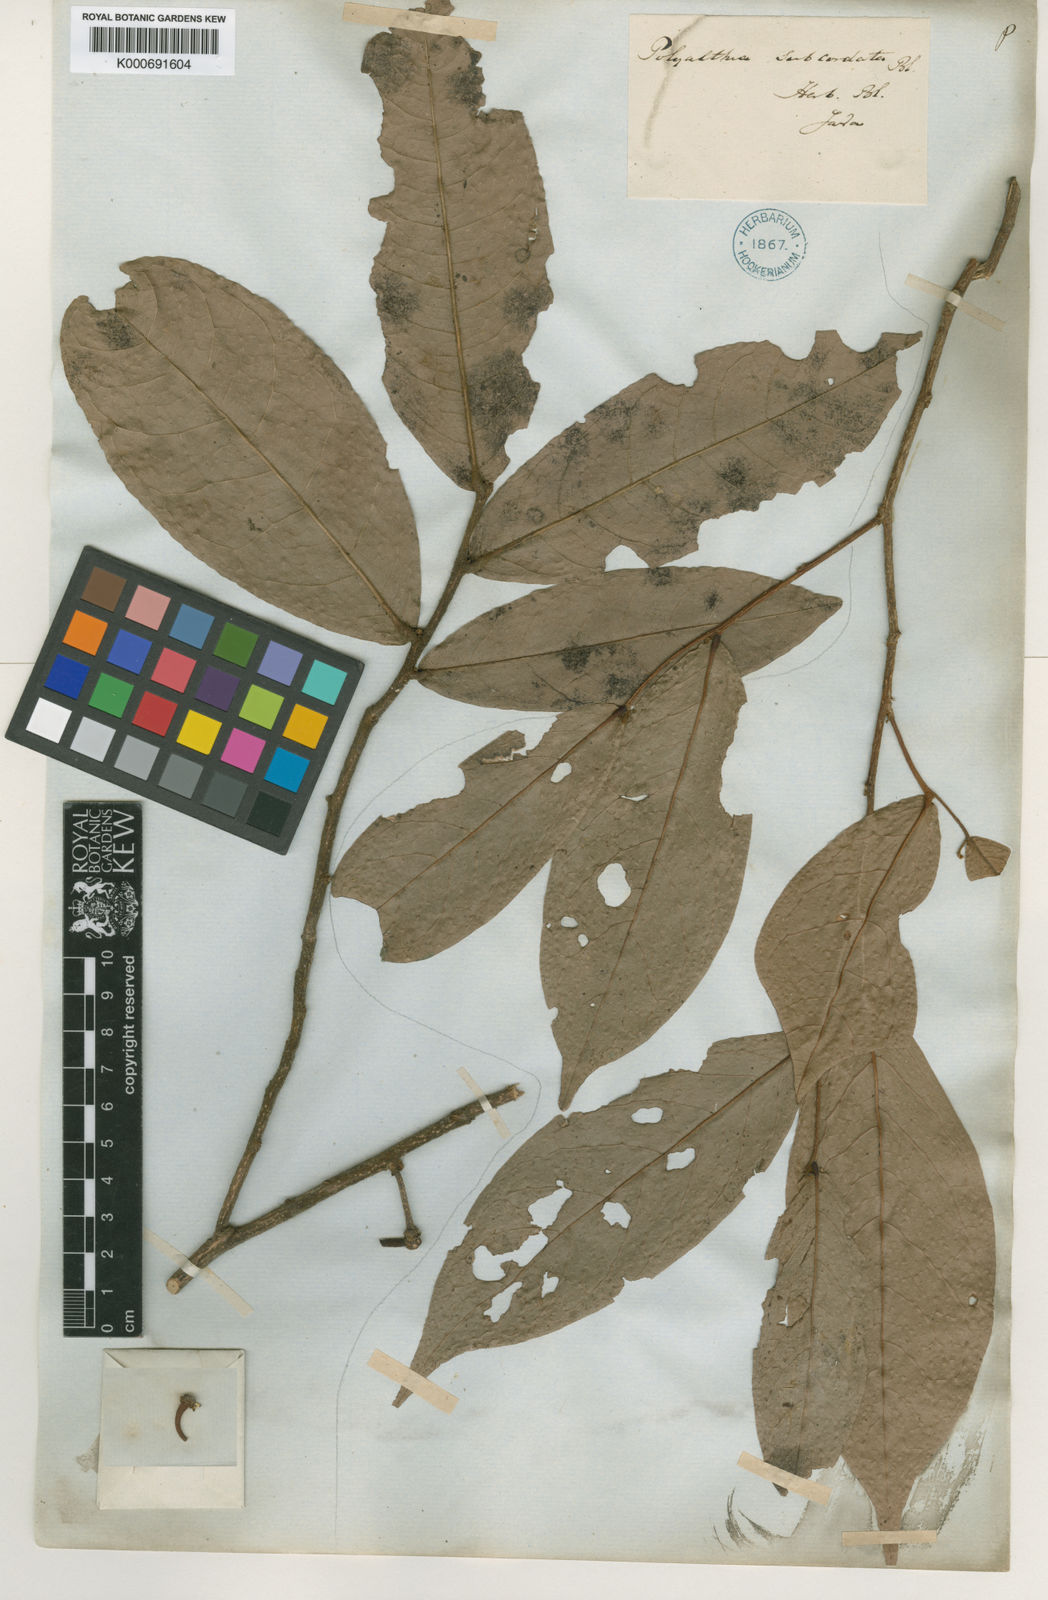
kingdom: Plantae
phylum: Tracheophyta
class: Magnoliopsida
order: Magnoliales
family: Annonaceae
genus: Polyalthia
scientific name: Polyalthia subcordata
